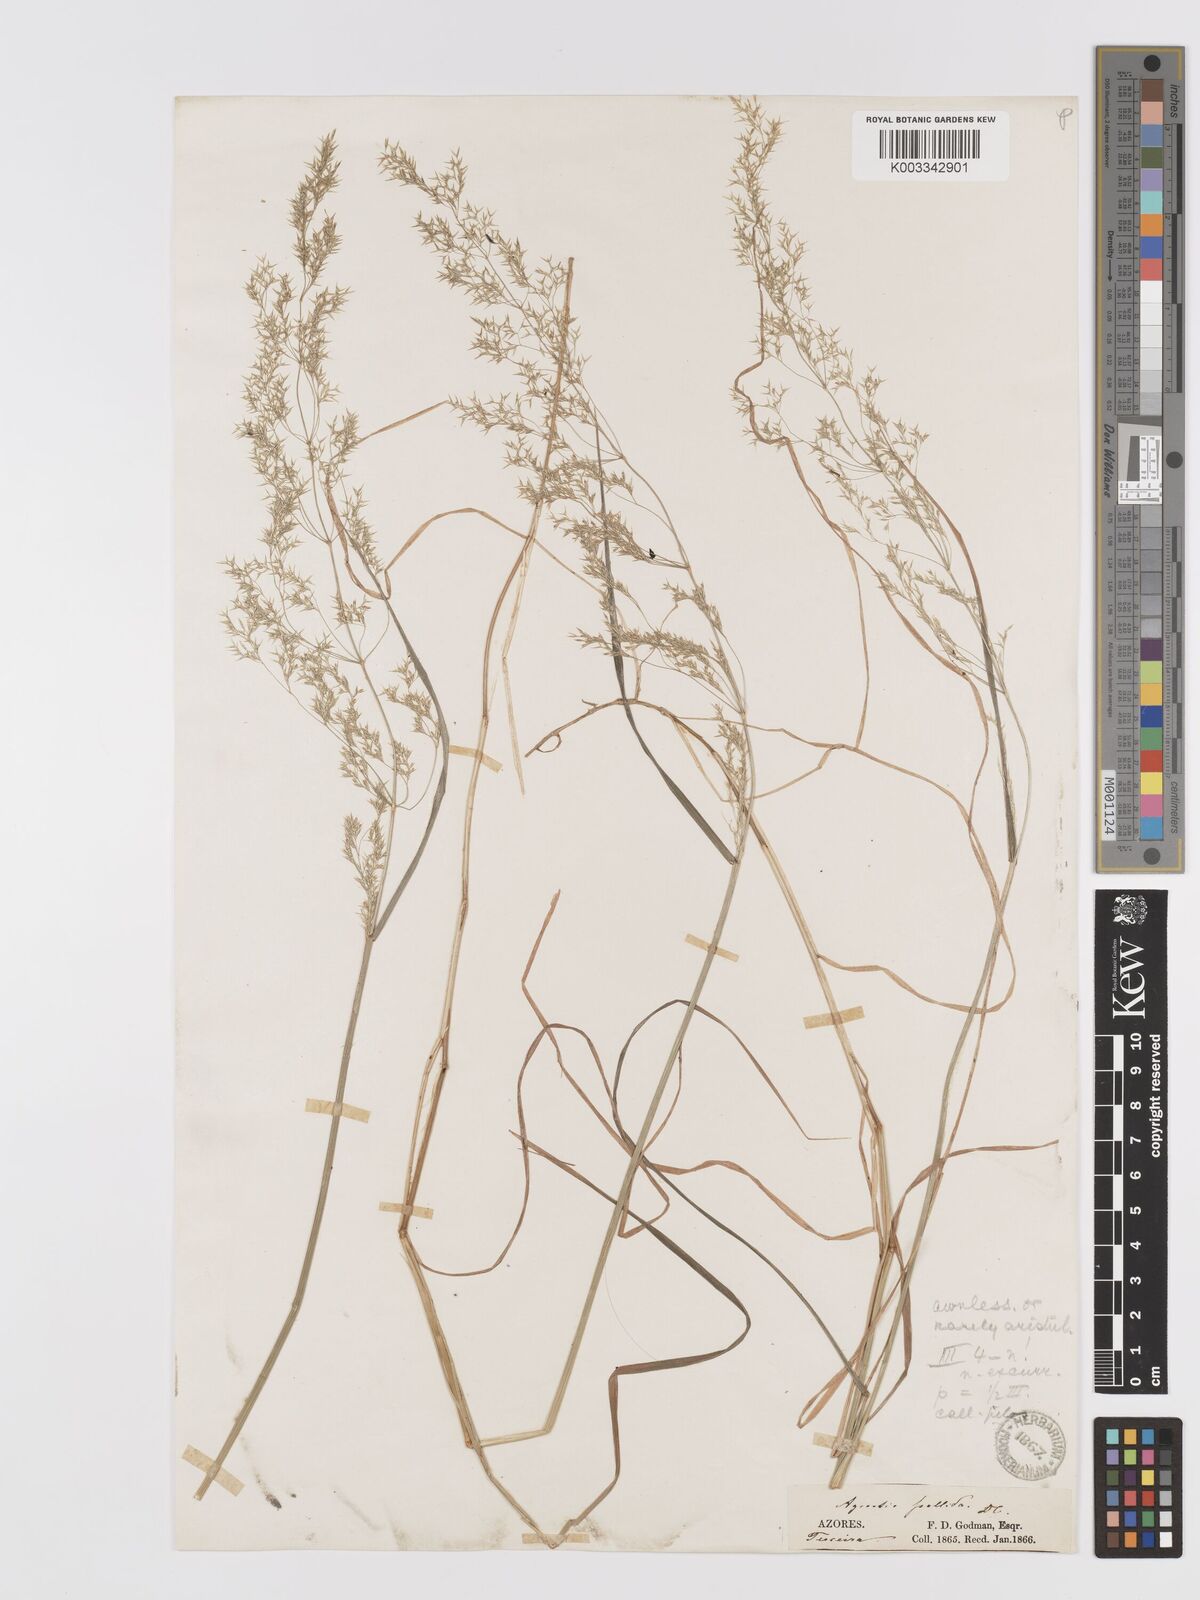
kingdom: Plantae
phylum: Tracheophyta
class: Liliopsida
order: Poales
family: Poaceae
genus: Agrostis
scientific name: Agrostis pourretii
